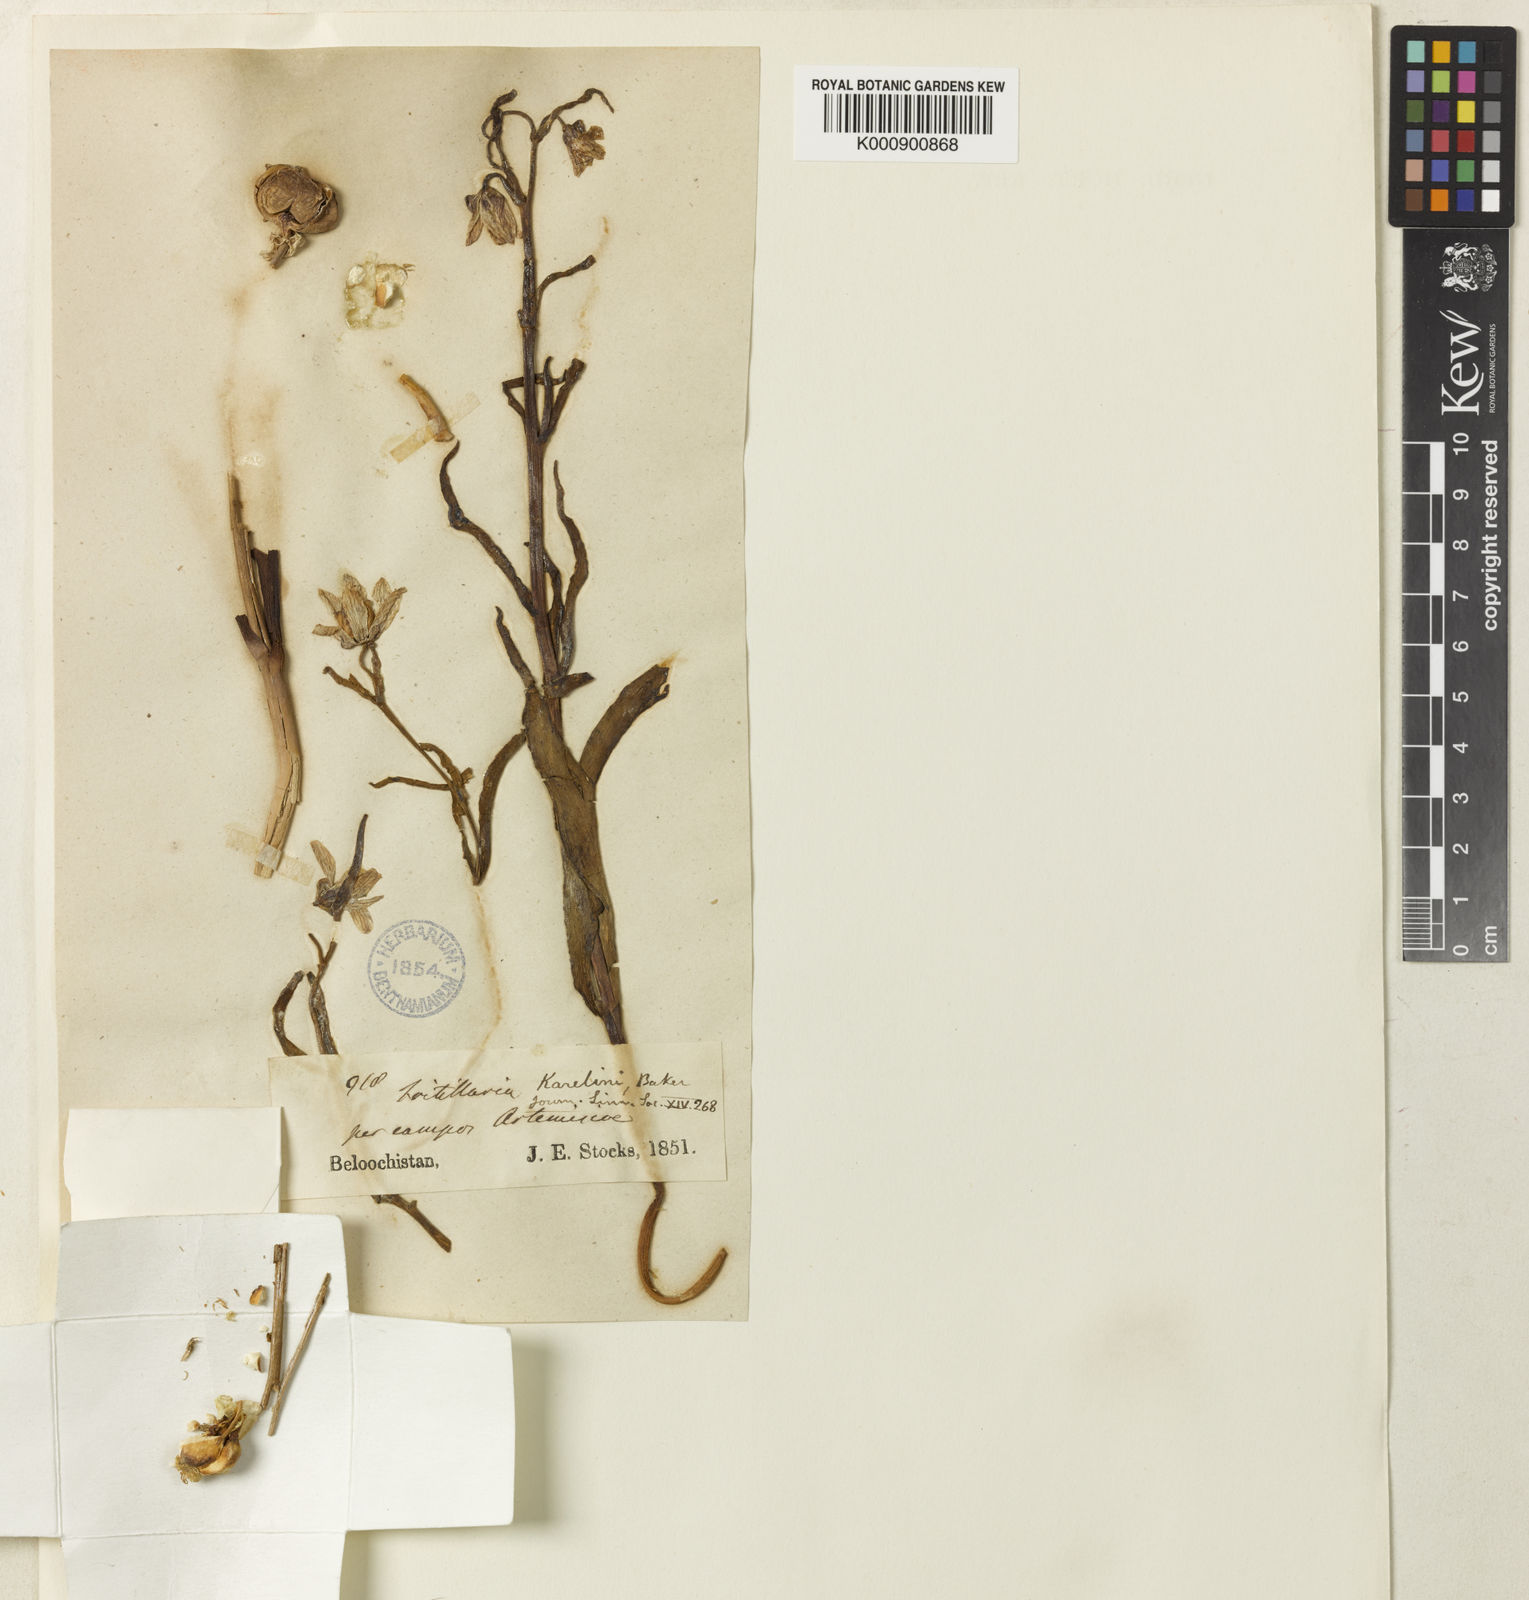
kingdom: Plantae
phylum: Tracheophyta
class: Liliopsida
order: Liliales
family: Liliaceae
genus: Fritillaria
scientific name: Fritillaria karelinii
